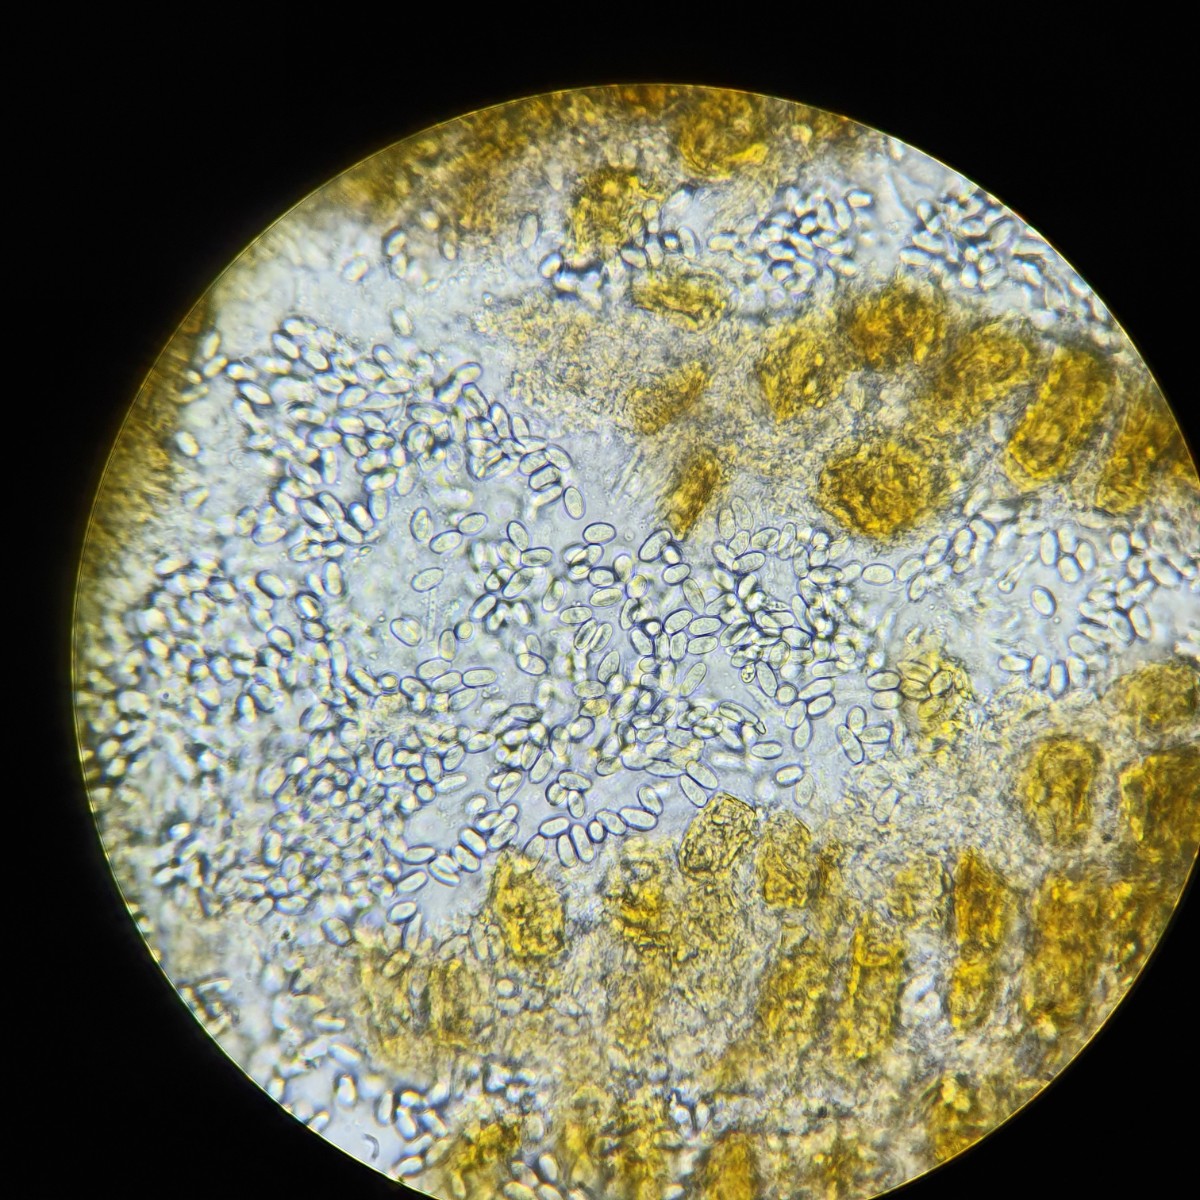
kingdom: Fungi
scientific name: Fungi
